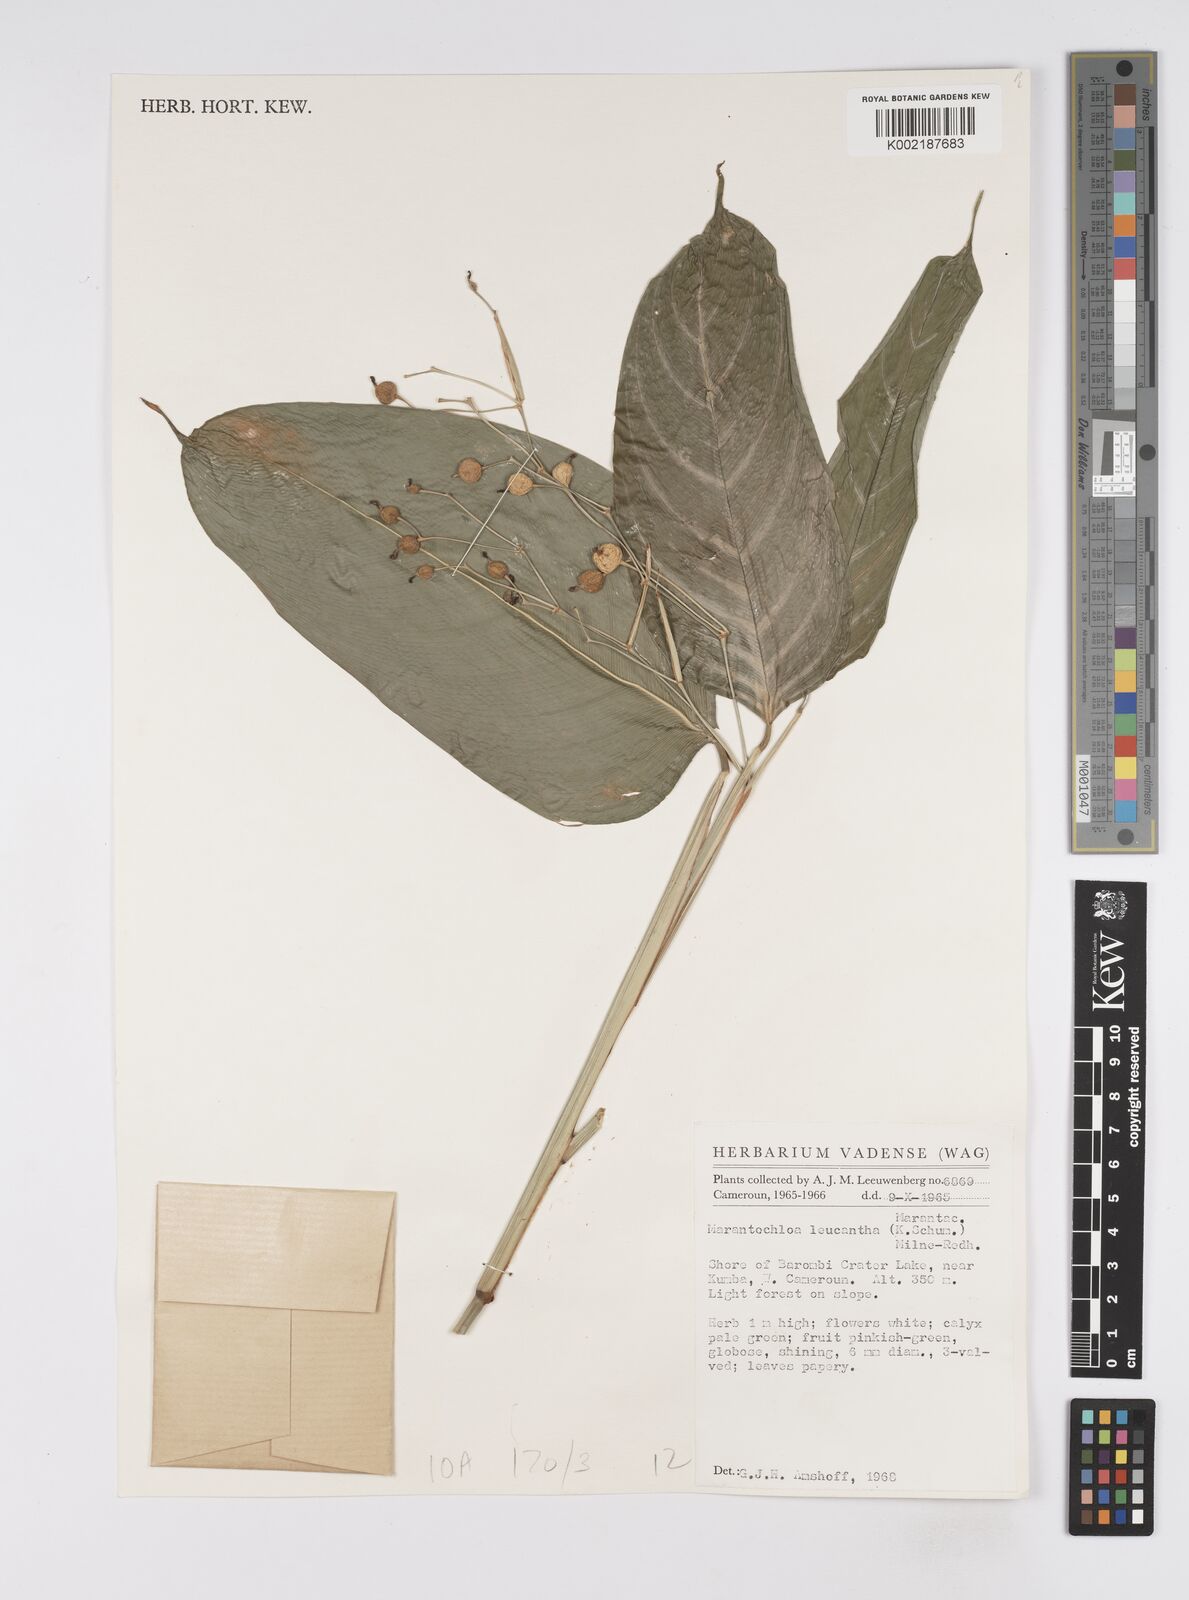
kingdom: Plantae
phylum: Tracheophyta
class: Liliopsida
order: Zingiberales
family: Marantaceae
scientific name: Marantaceae
